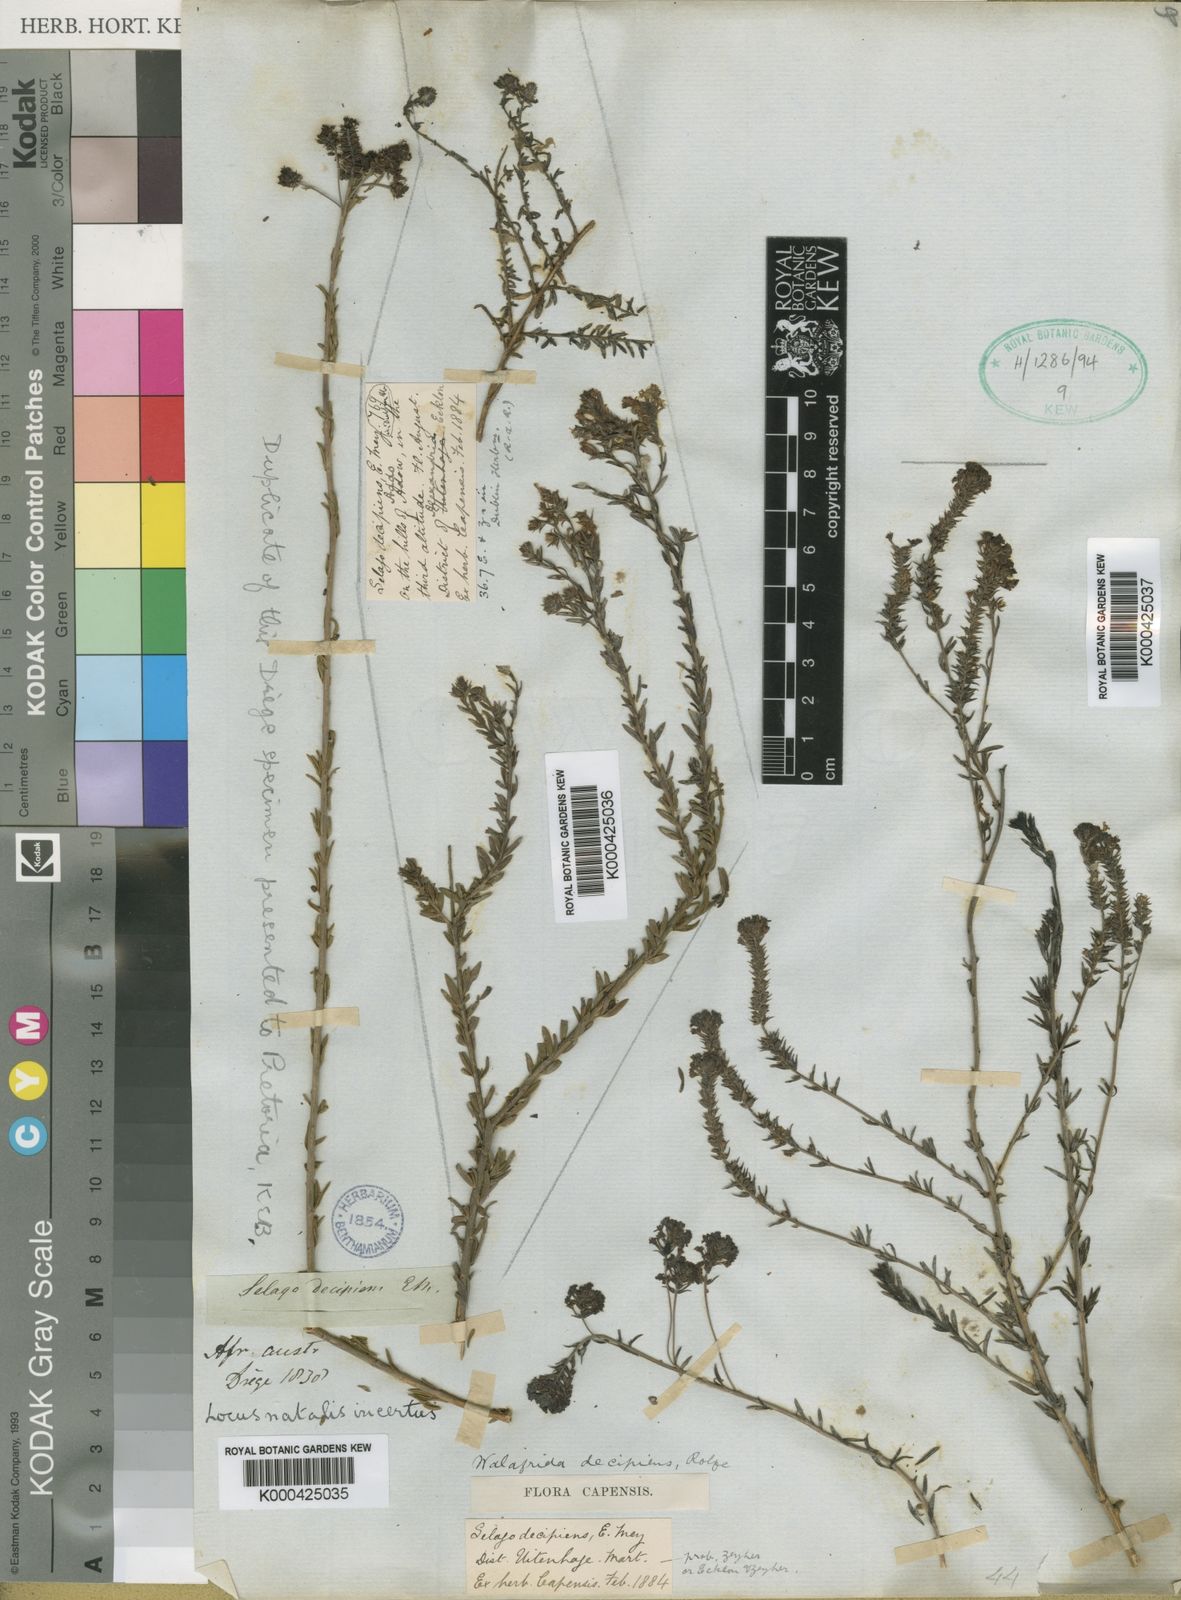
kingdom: Plantae
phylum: Tracheophyta
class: Magnoliopsida
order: Lamiales
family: Scrophulariaceae
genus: Selago
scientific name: Selago decipiens
